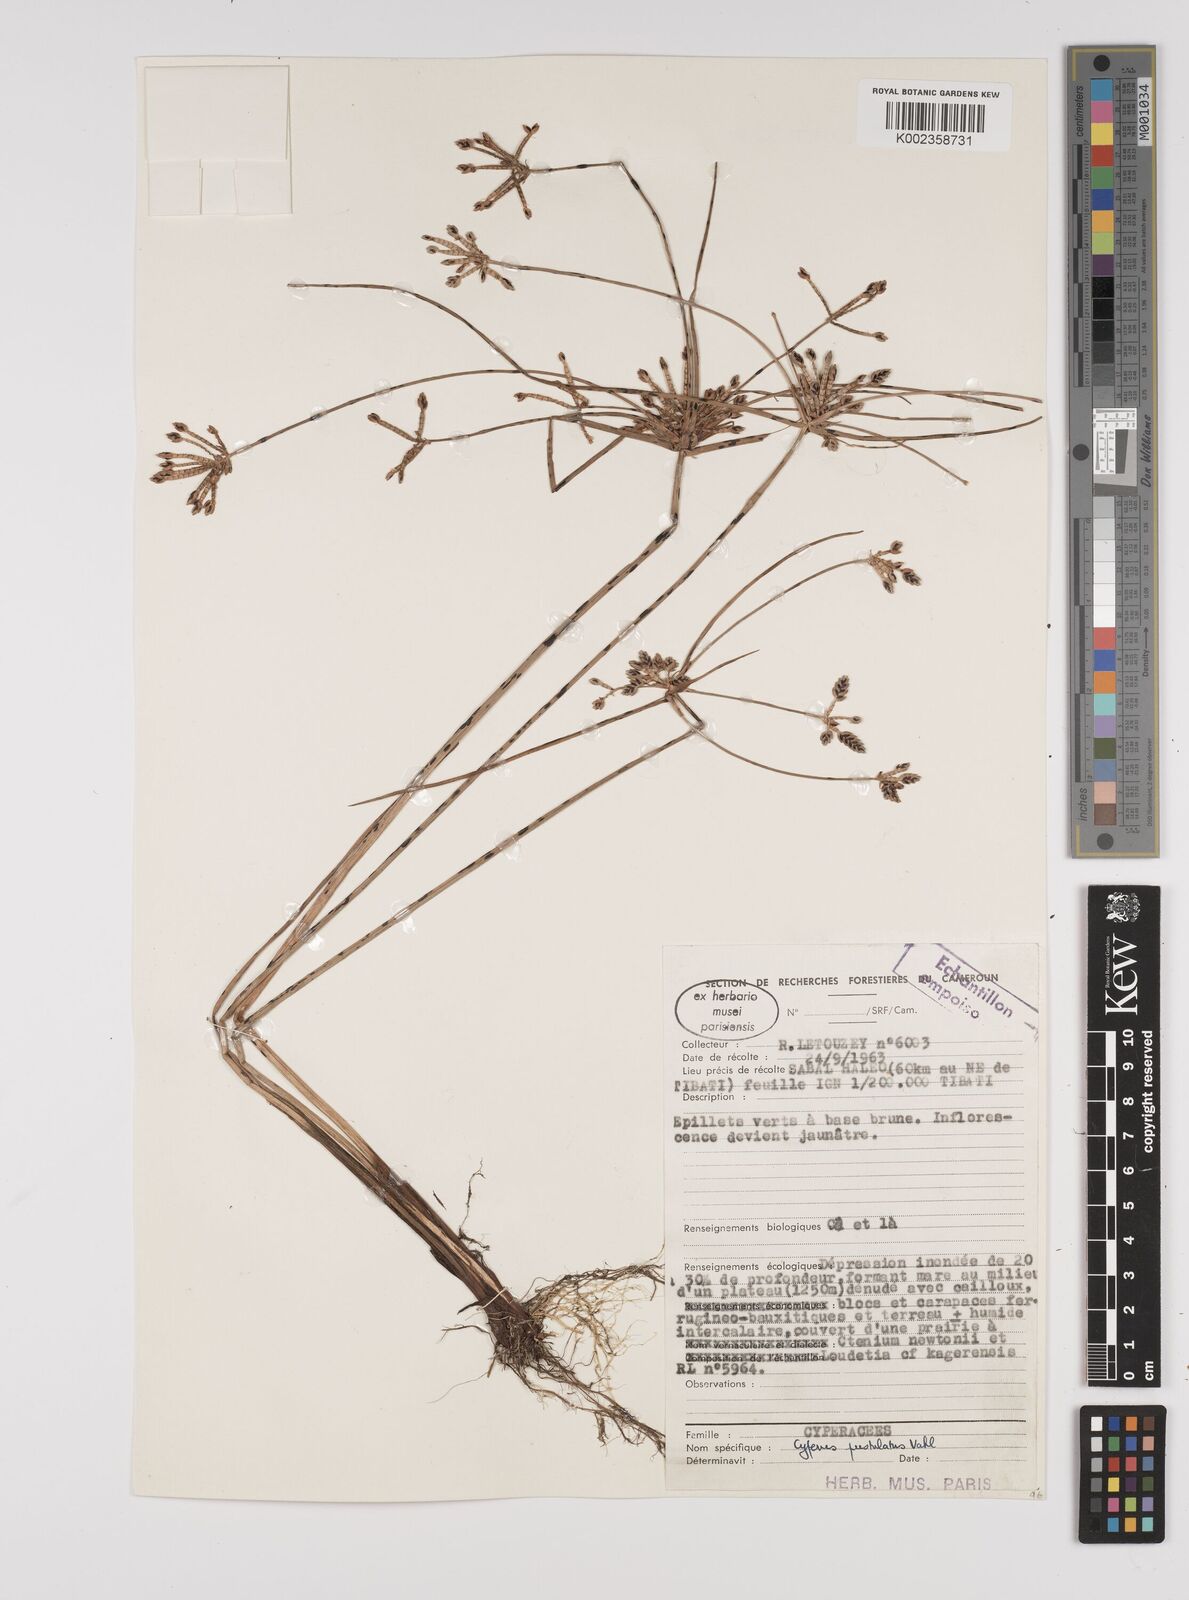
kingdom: Plantae
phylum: Tracheophyta
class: Liliopsida
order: Poales
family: Cyperaceae
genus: Cyperus
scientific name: Cyperus pustulatus
